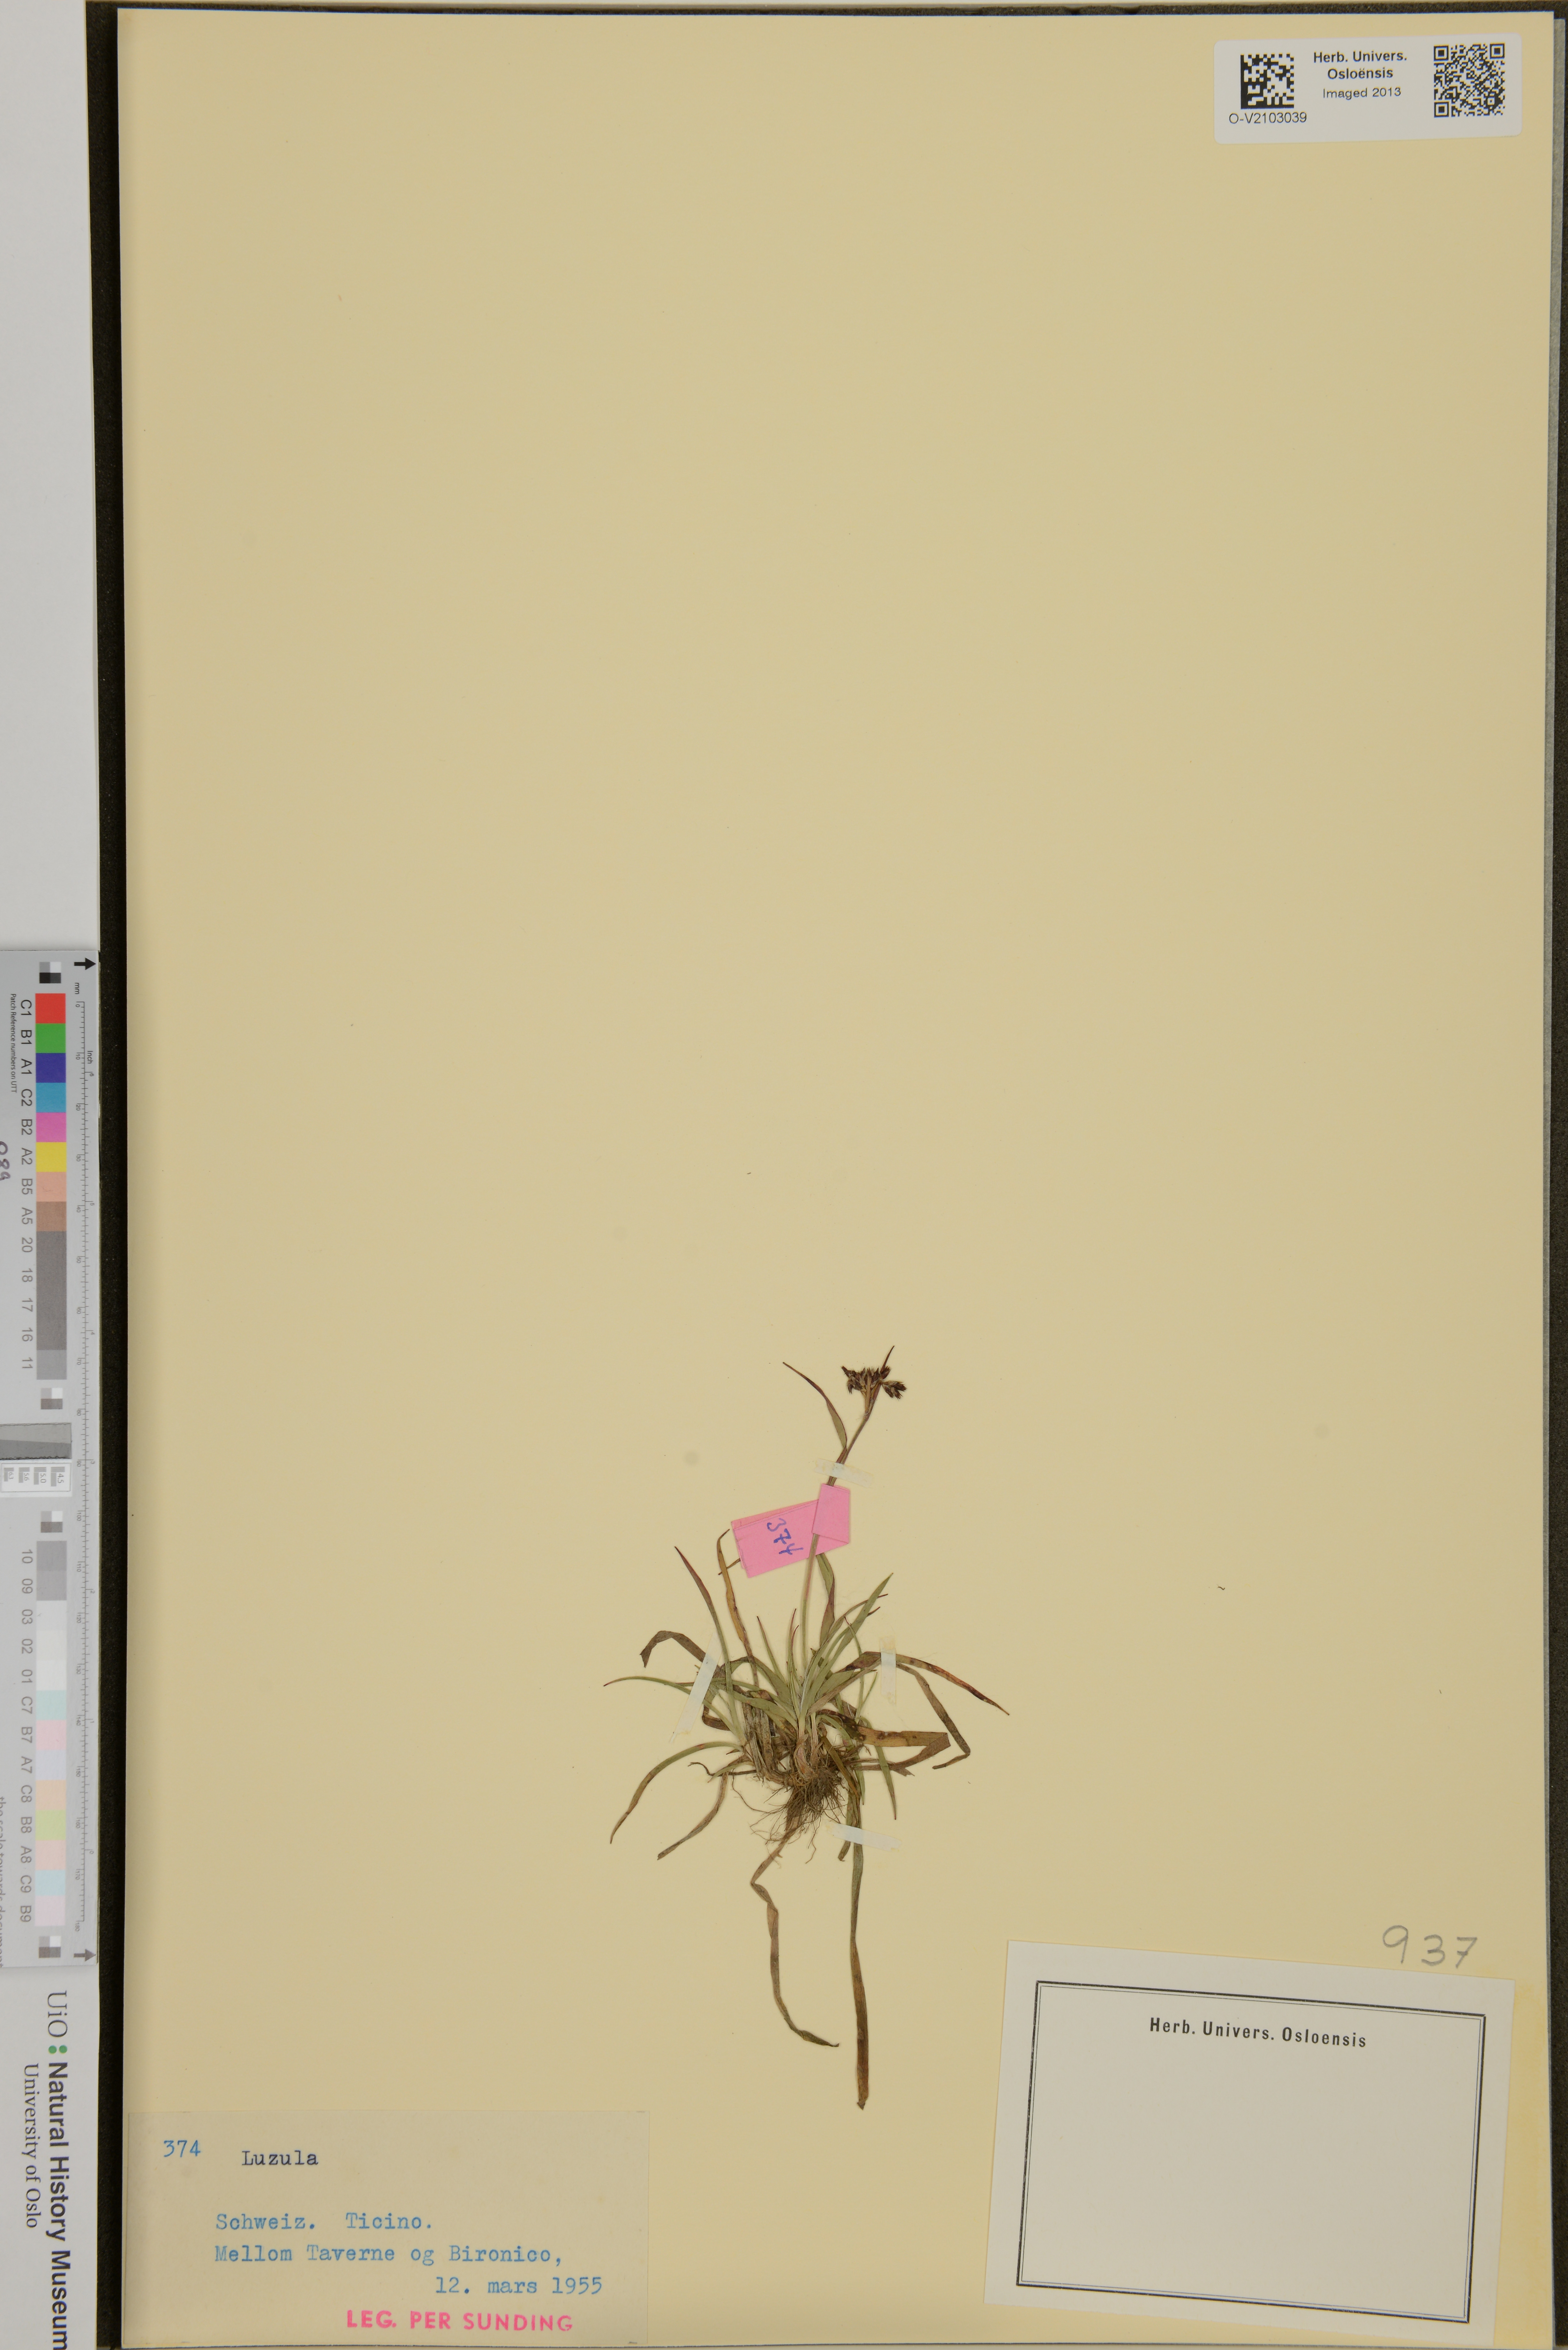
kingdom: Plantae
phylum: Tracheophyta
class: Liliopsida
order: Poales
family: Juncaceae
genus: Luzula
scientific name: Luzula
